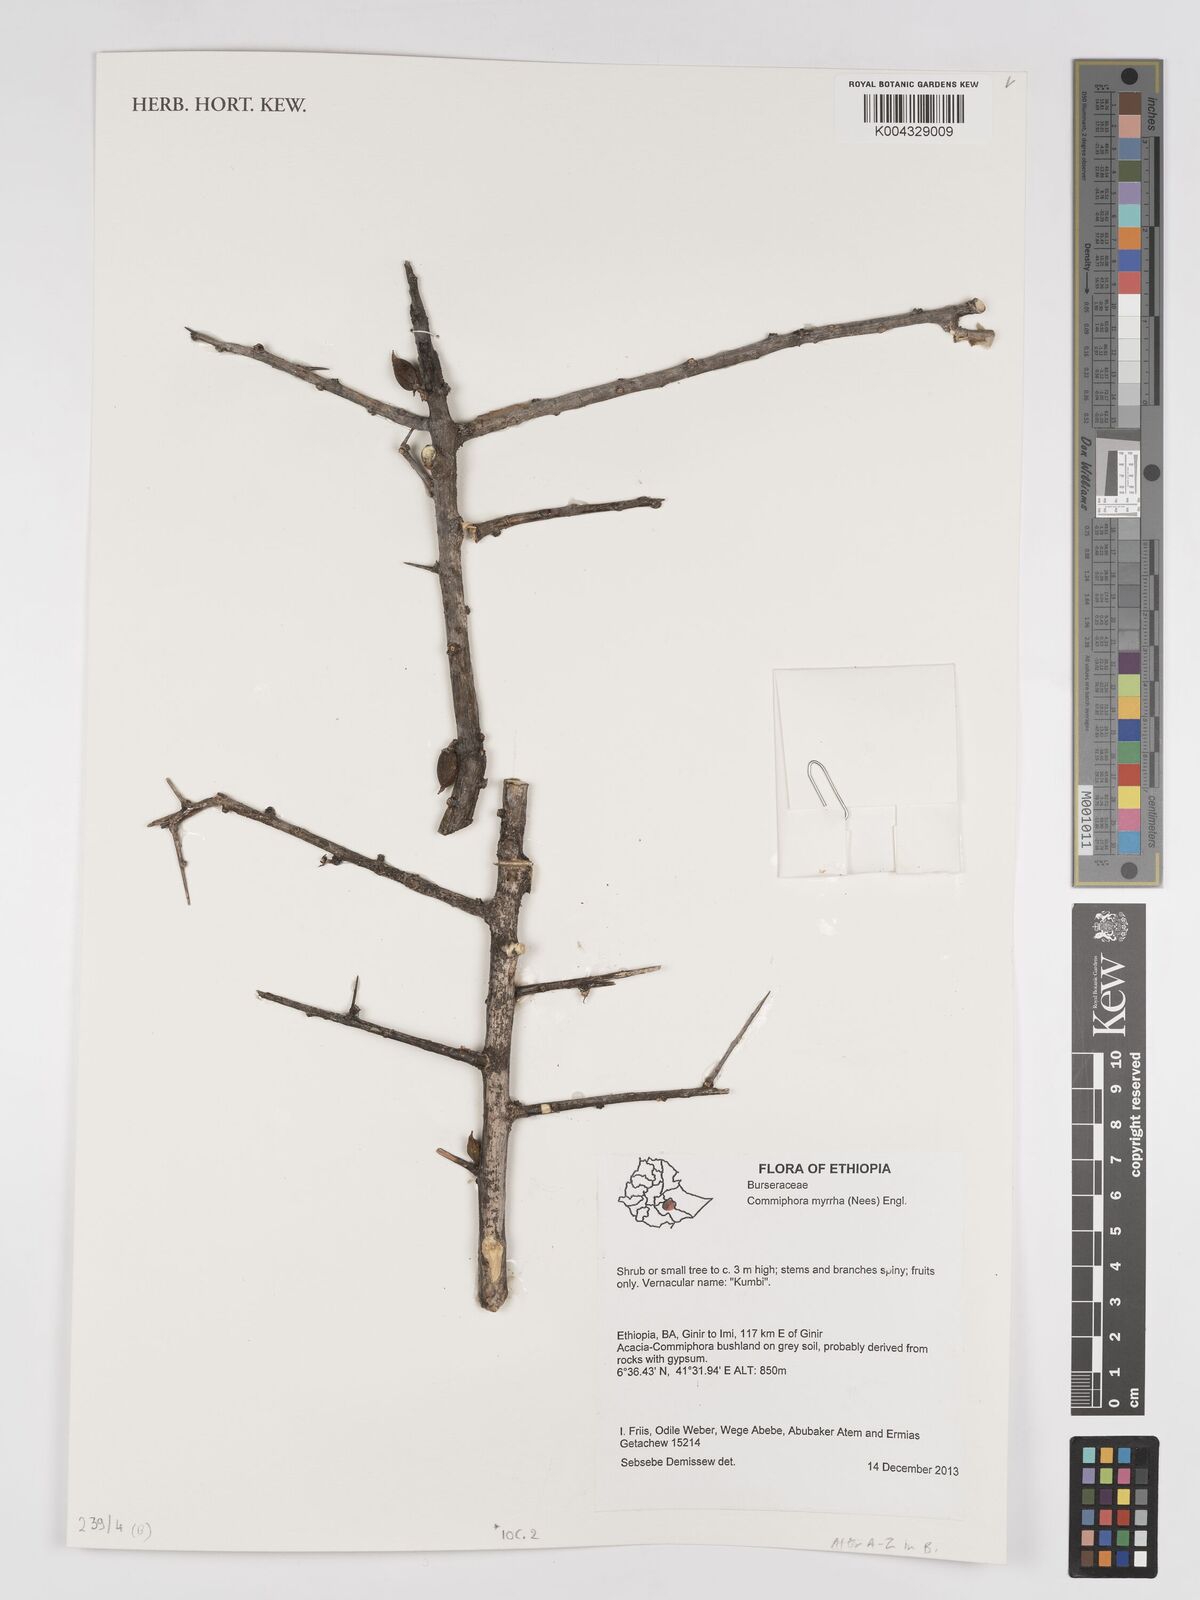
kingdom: Plantae
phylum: Tracheophyta
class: Magnoliopsida
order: Sapindales
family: Burseraceae
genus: Commiphora
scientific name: Commiphora myrrha
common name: African myrrh
